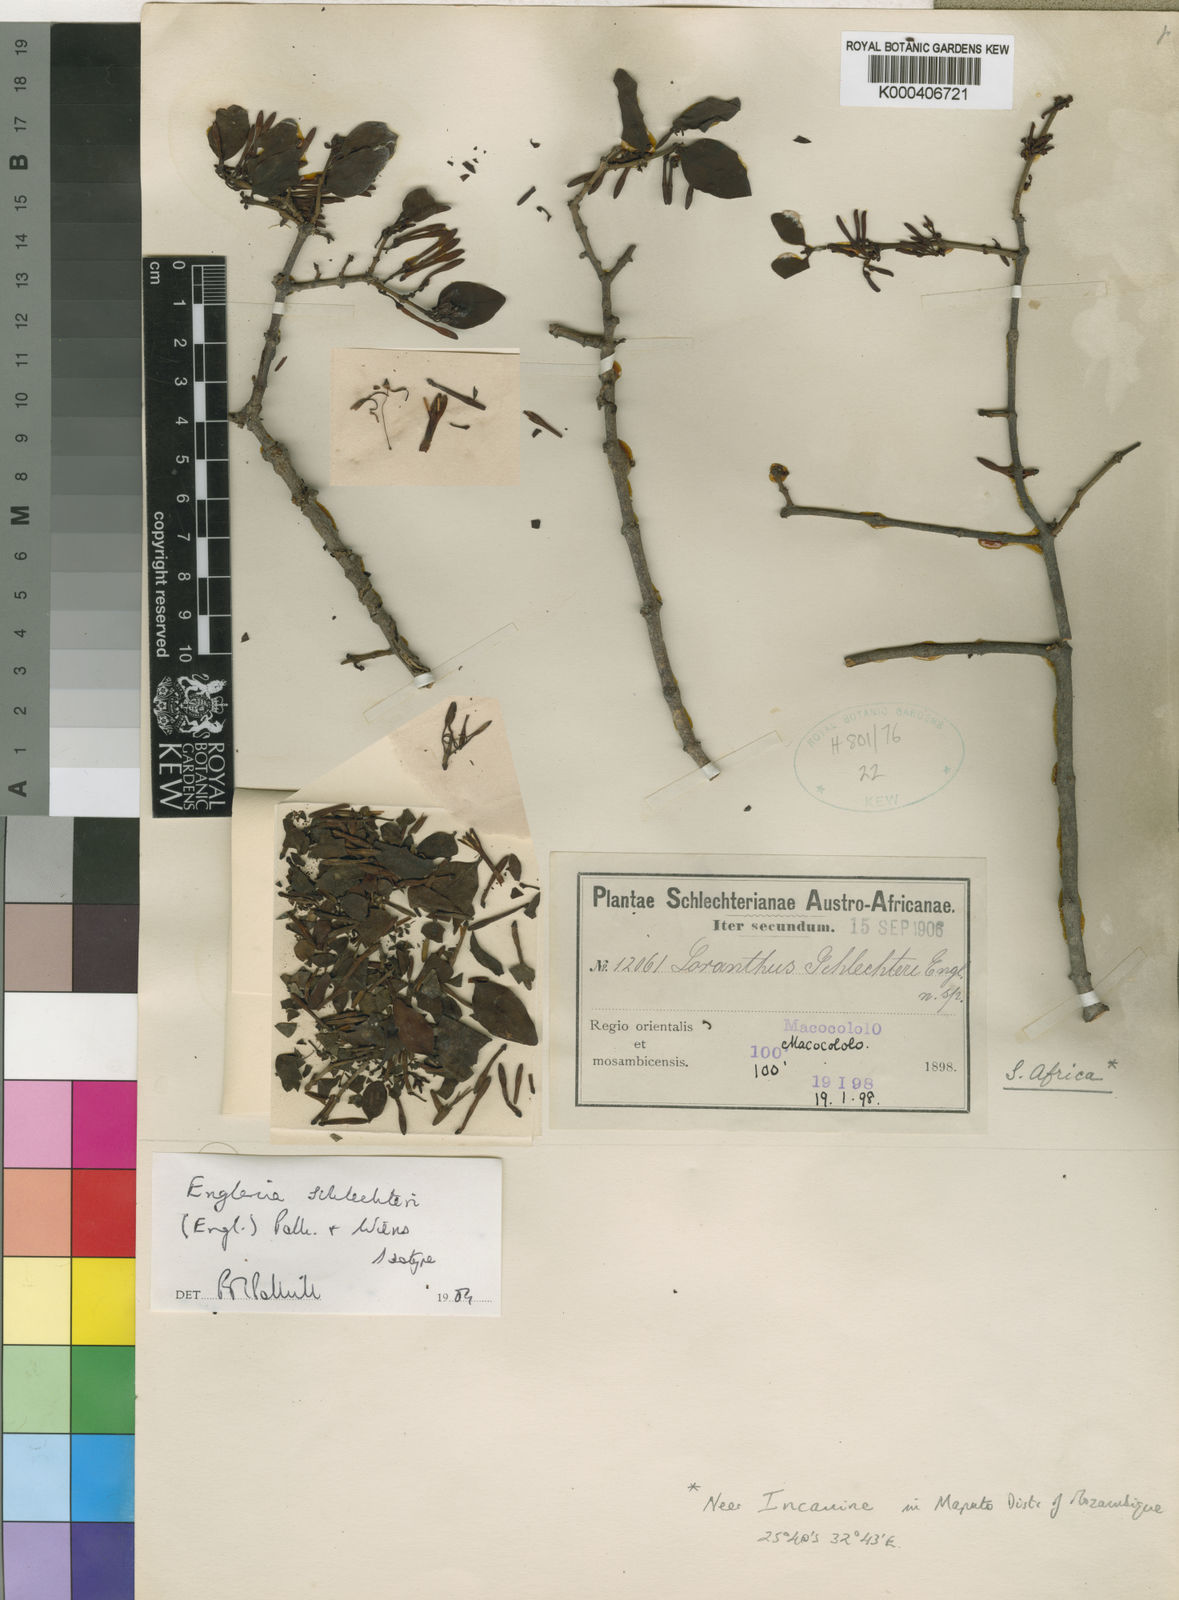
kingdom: Plantae
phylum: Tracheophyta
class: Magnoliopsida
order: Santalales
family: Loranthaceae
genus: Englerina
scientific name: Englerina schlechteri
